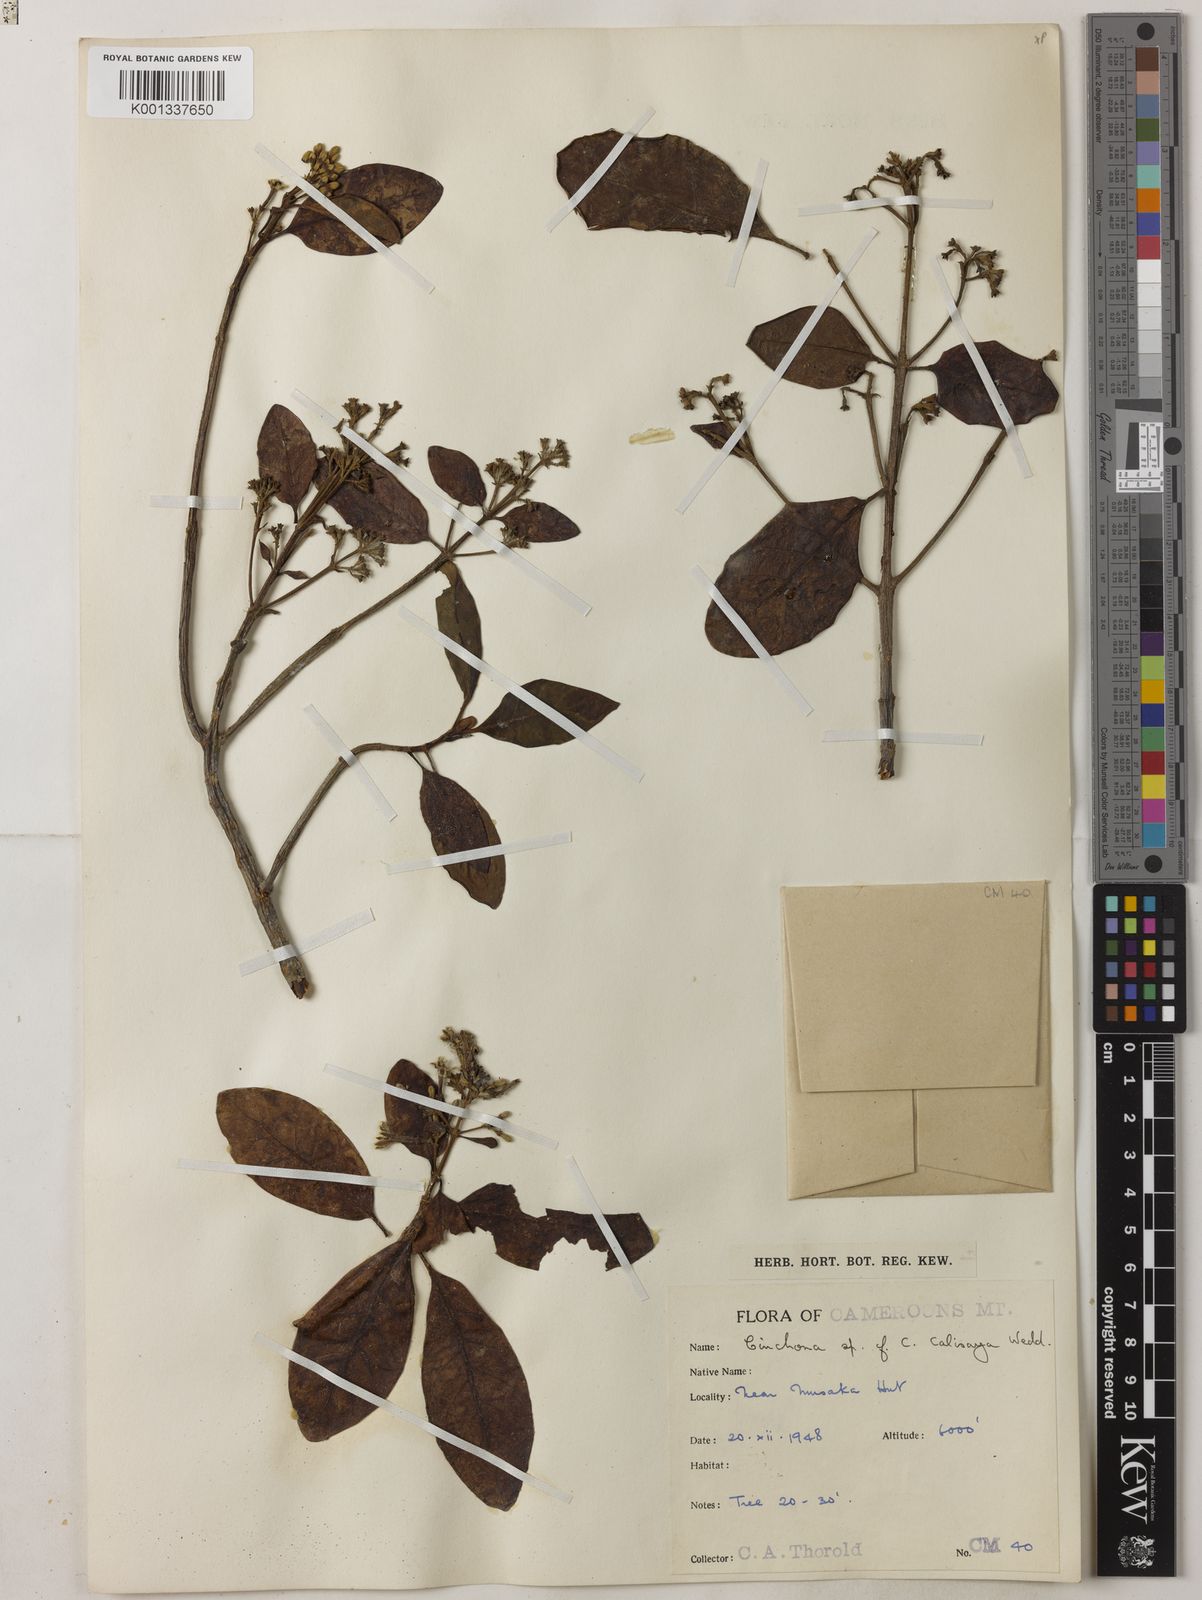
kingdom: Plantae
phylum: Tracheophyta
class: Magnoliopsida
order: Gentianales
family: Rubiaceae
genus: Cinchona
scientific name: Cinchona calisaya
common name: Ledgerbark
